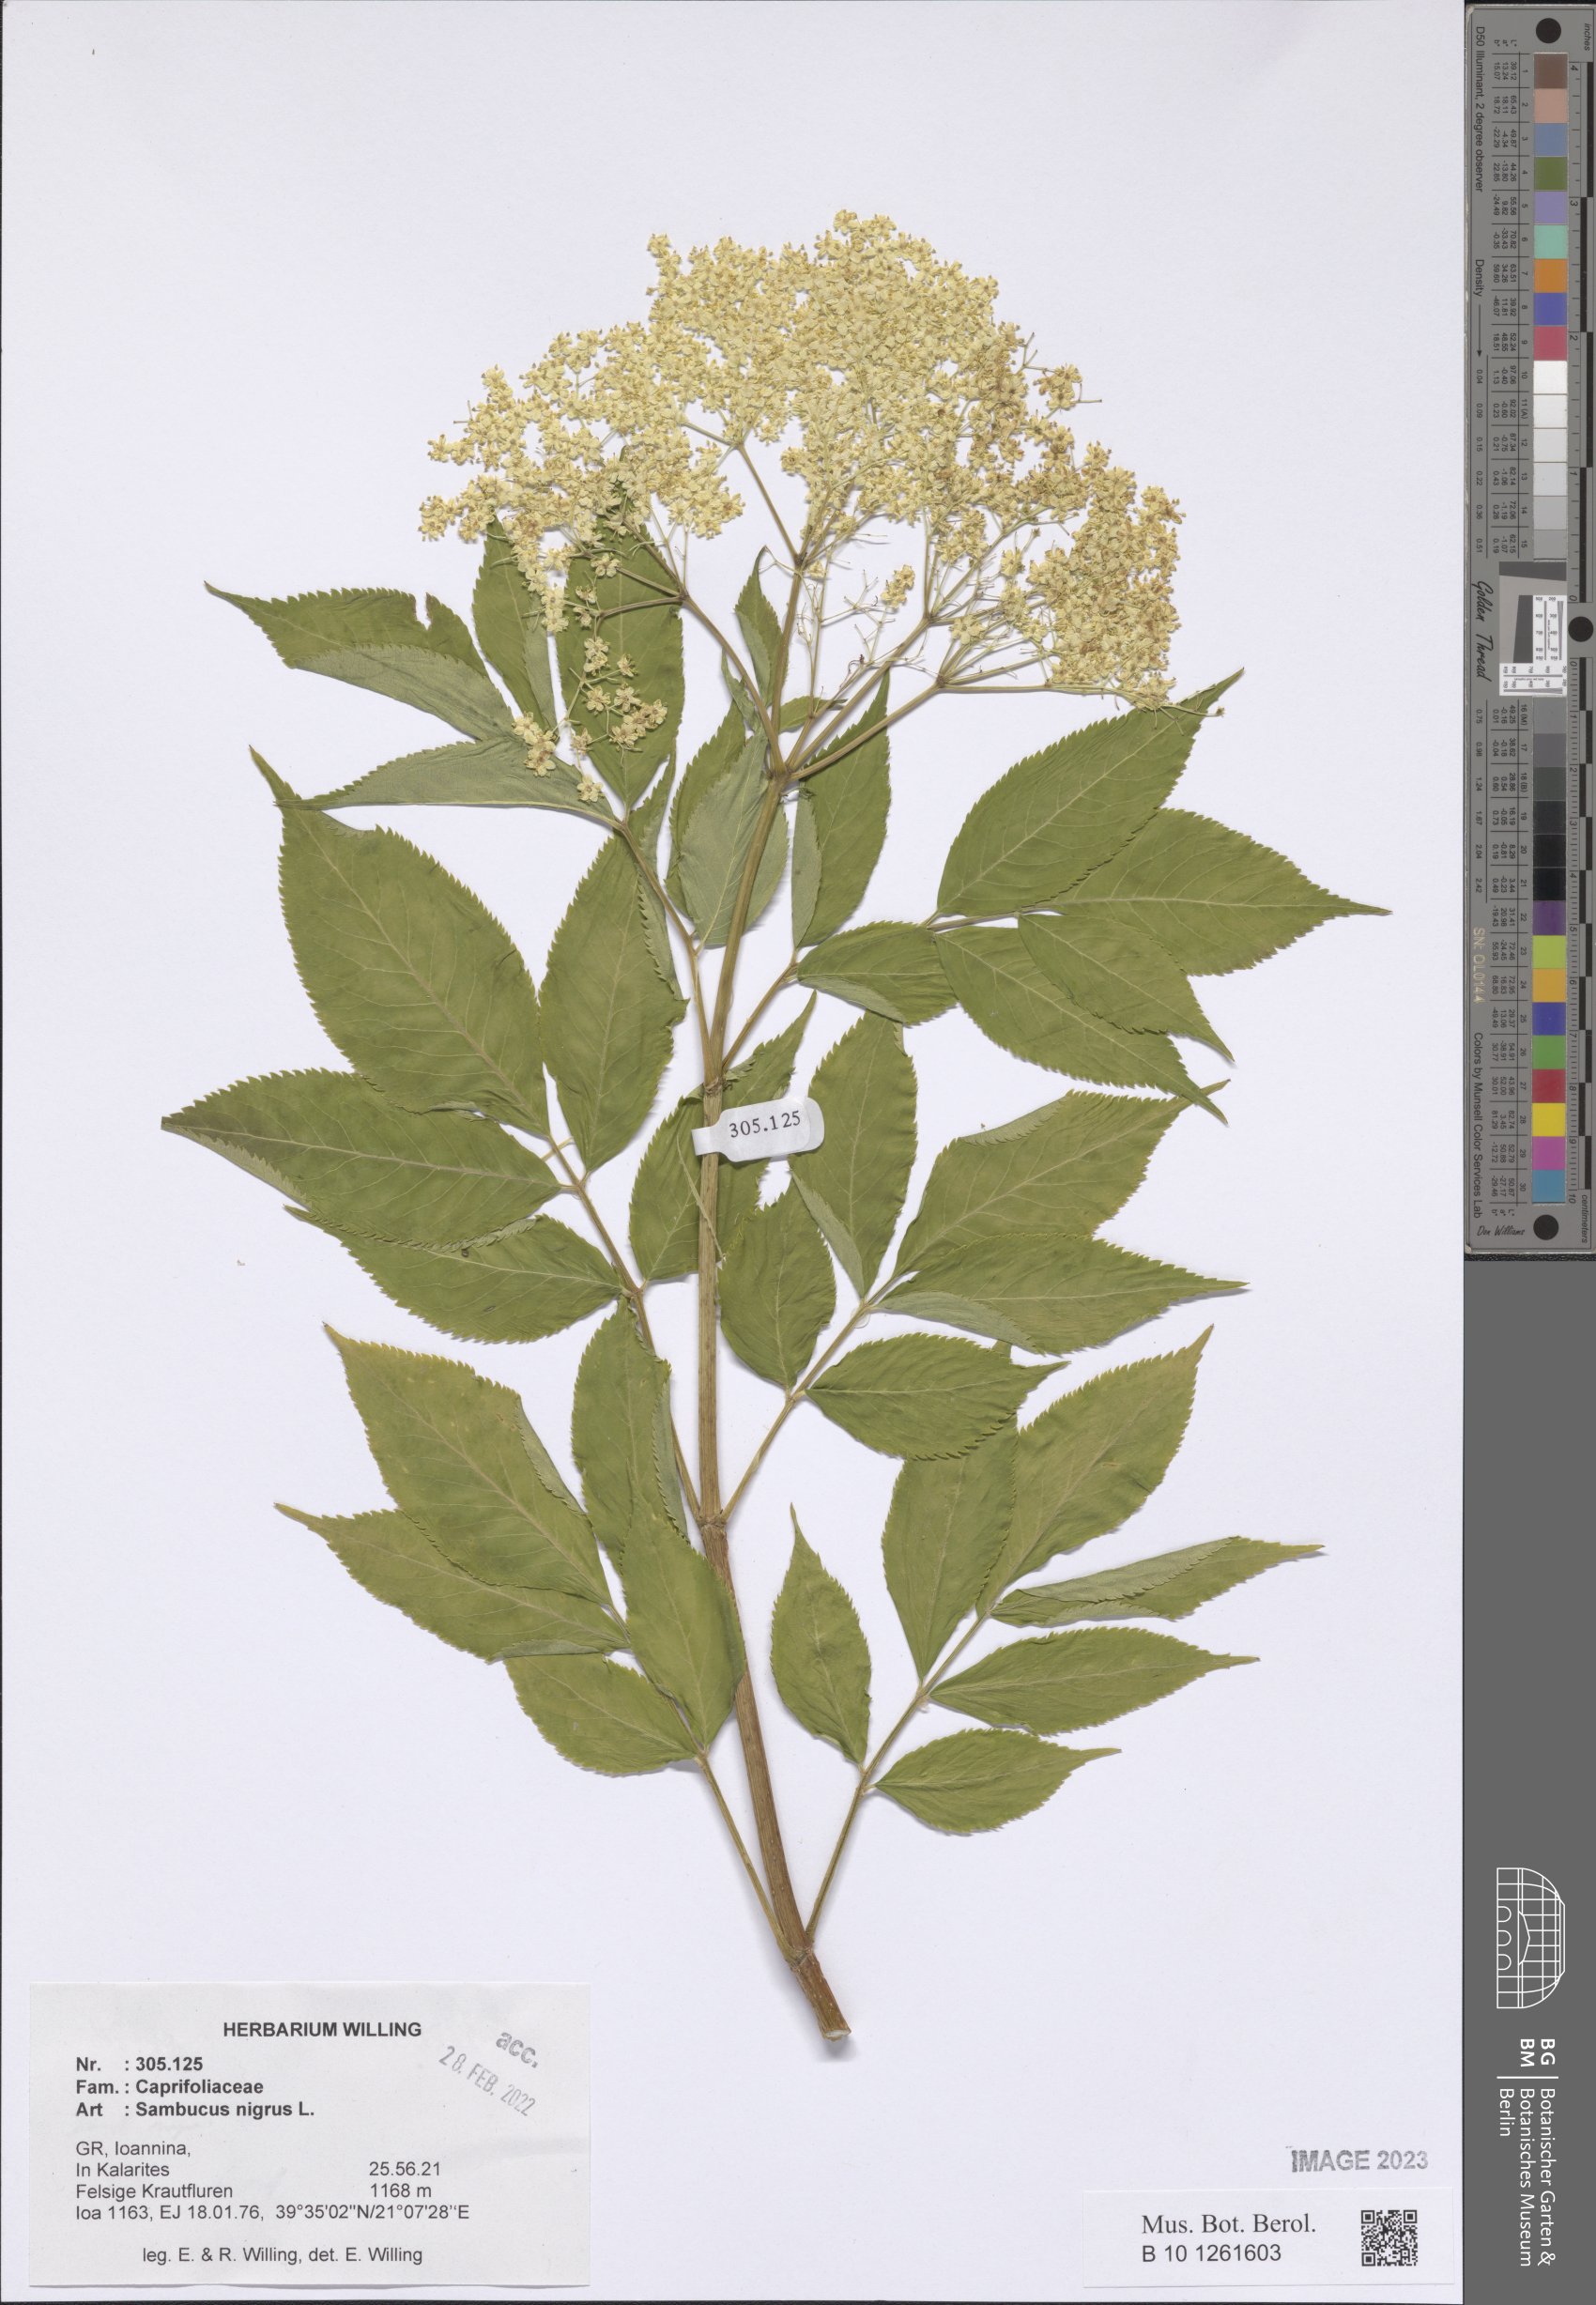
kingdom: Plantae
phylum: Tracheophyta
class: Magnoliopsida
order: Dipsacales
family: Viburnaceae
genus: Sambucus
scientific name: Sambucus nigra
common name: Elder
